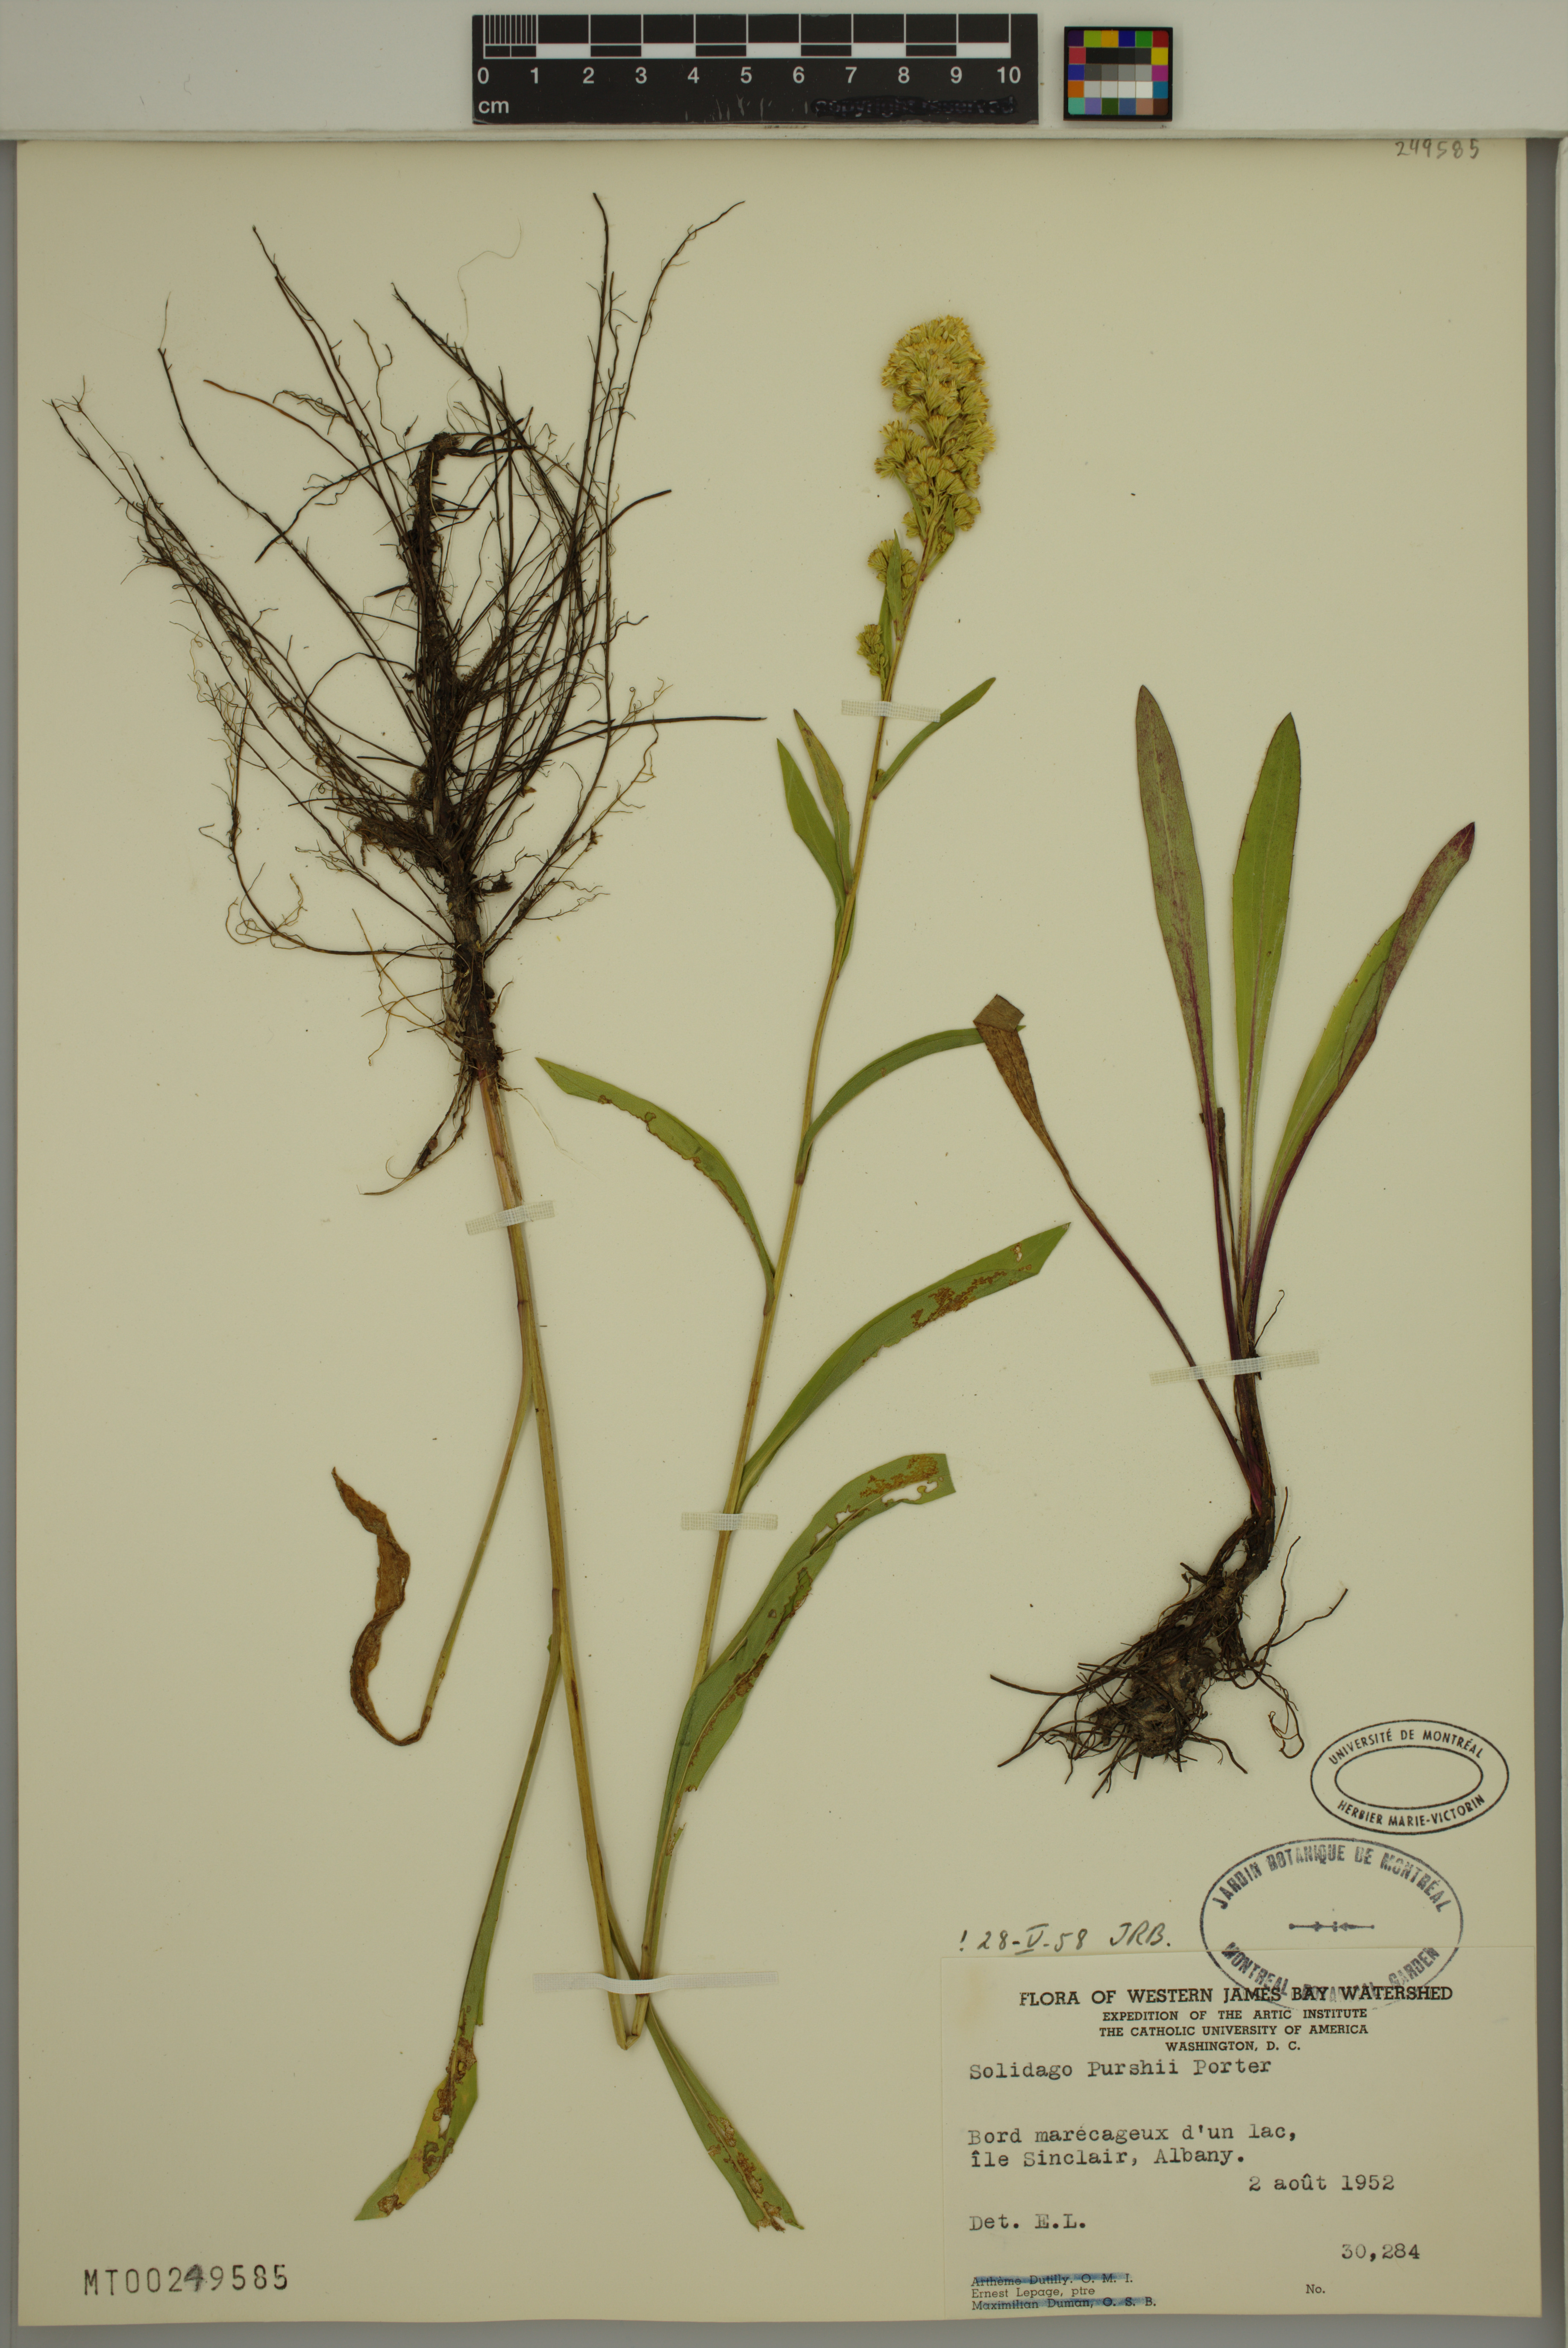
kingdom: Plantae
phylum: Tracheophyta
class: Magnoliopsida
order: Asterales
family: Asteraceae
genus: Solidago
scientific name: Solidago uliginosa
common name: Bog goldenrod
